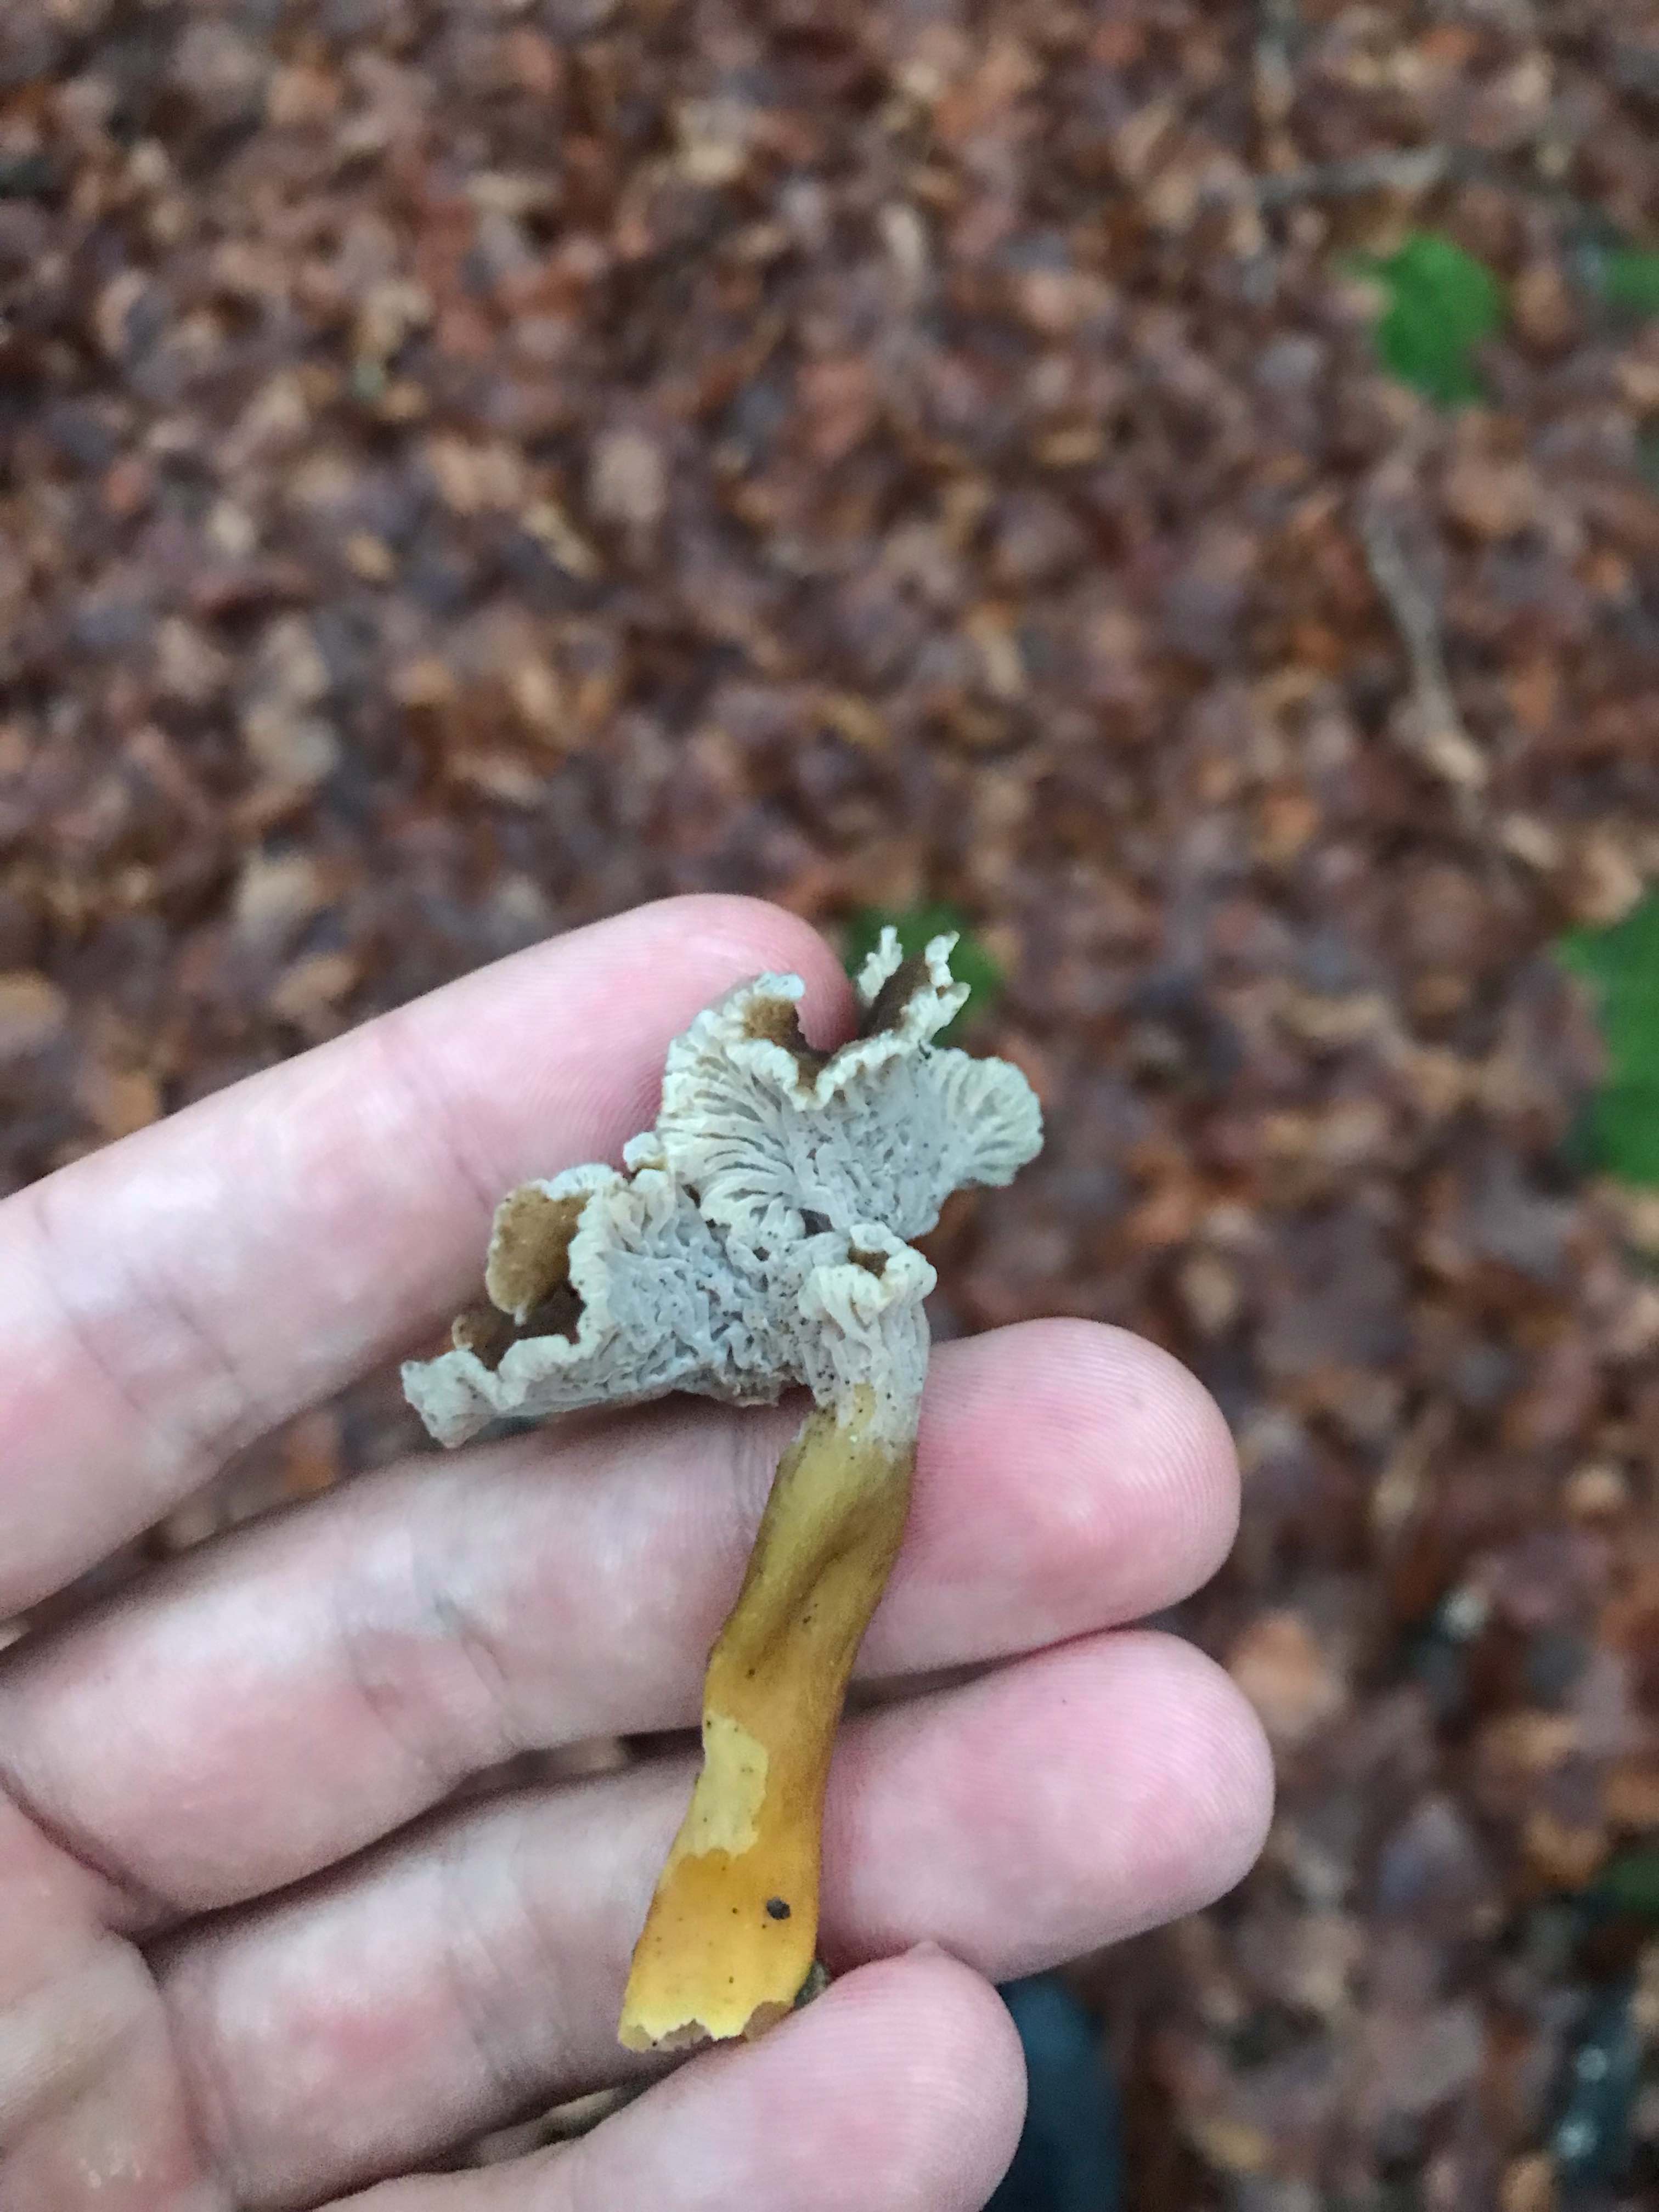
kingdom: Fungi
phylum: Basidiomycota
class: Agaricomycetes
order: Cantharellales
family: Hydnaceae
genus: Craterellus
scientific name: Craterellus tubaeformis
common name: tragt-kantarel
